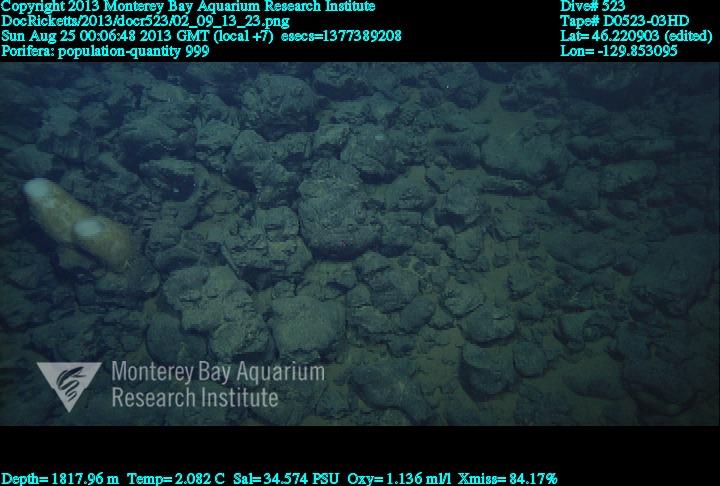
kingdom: Animalia
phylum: Porifera
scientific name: Porifera
